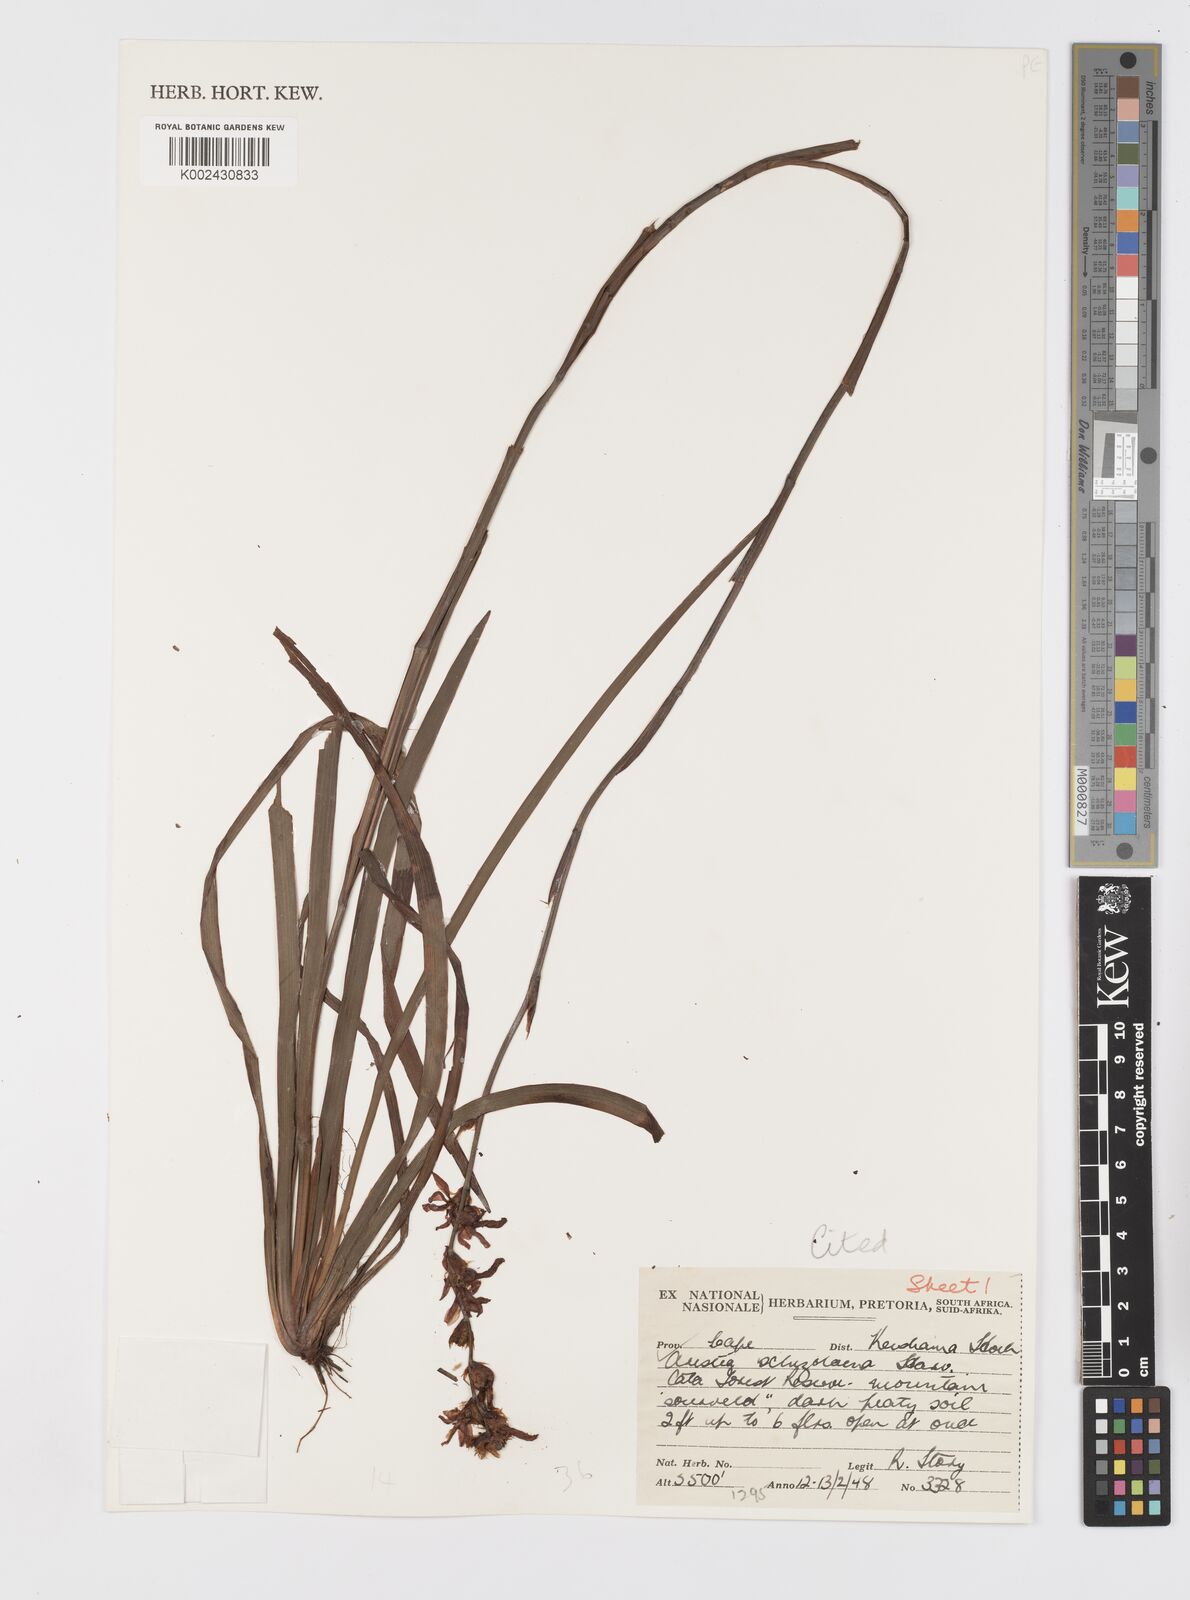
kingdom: Plantae
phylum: Tracheophyta
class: Liliopsida
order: Asparagales
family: Iridaceae
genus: Aristea
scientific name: Aristea schizolaena
